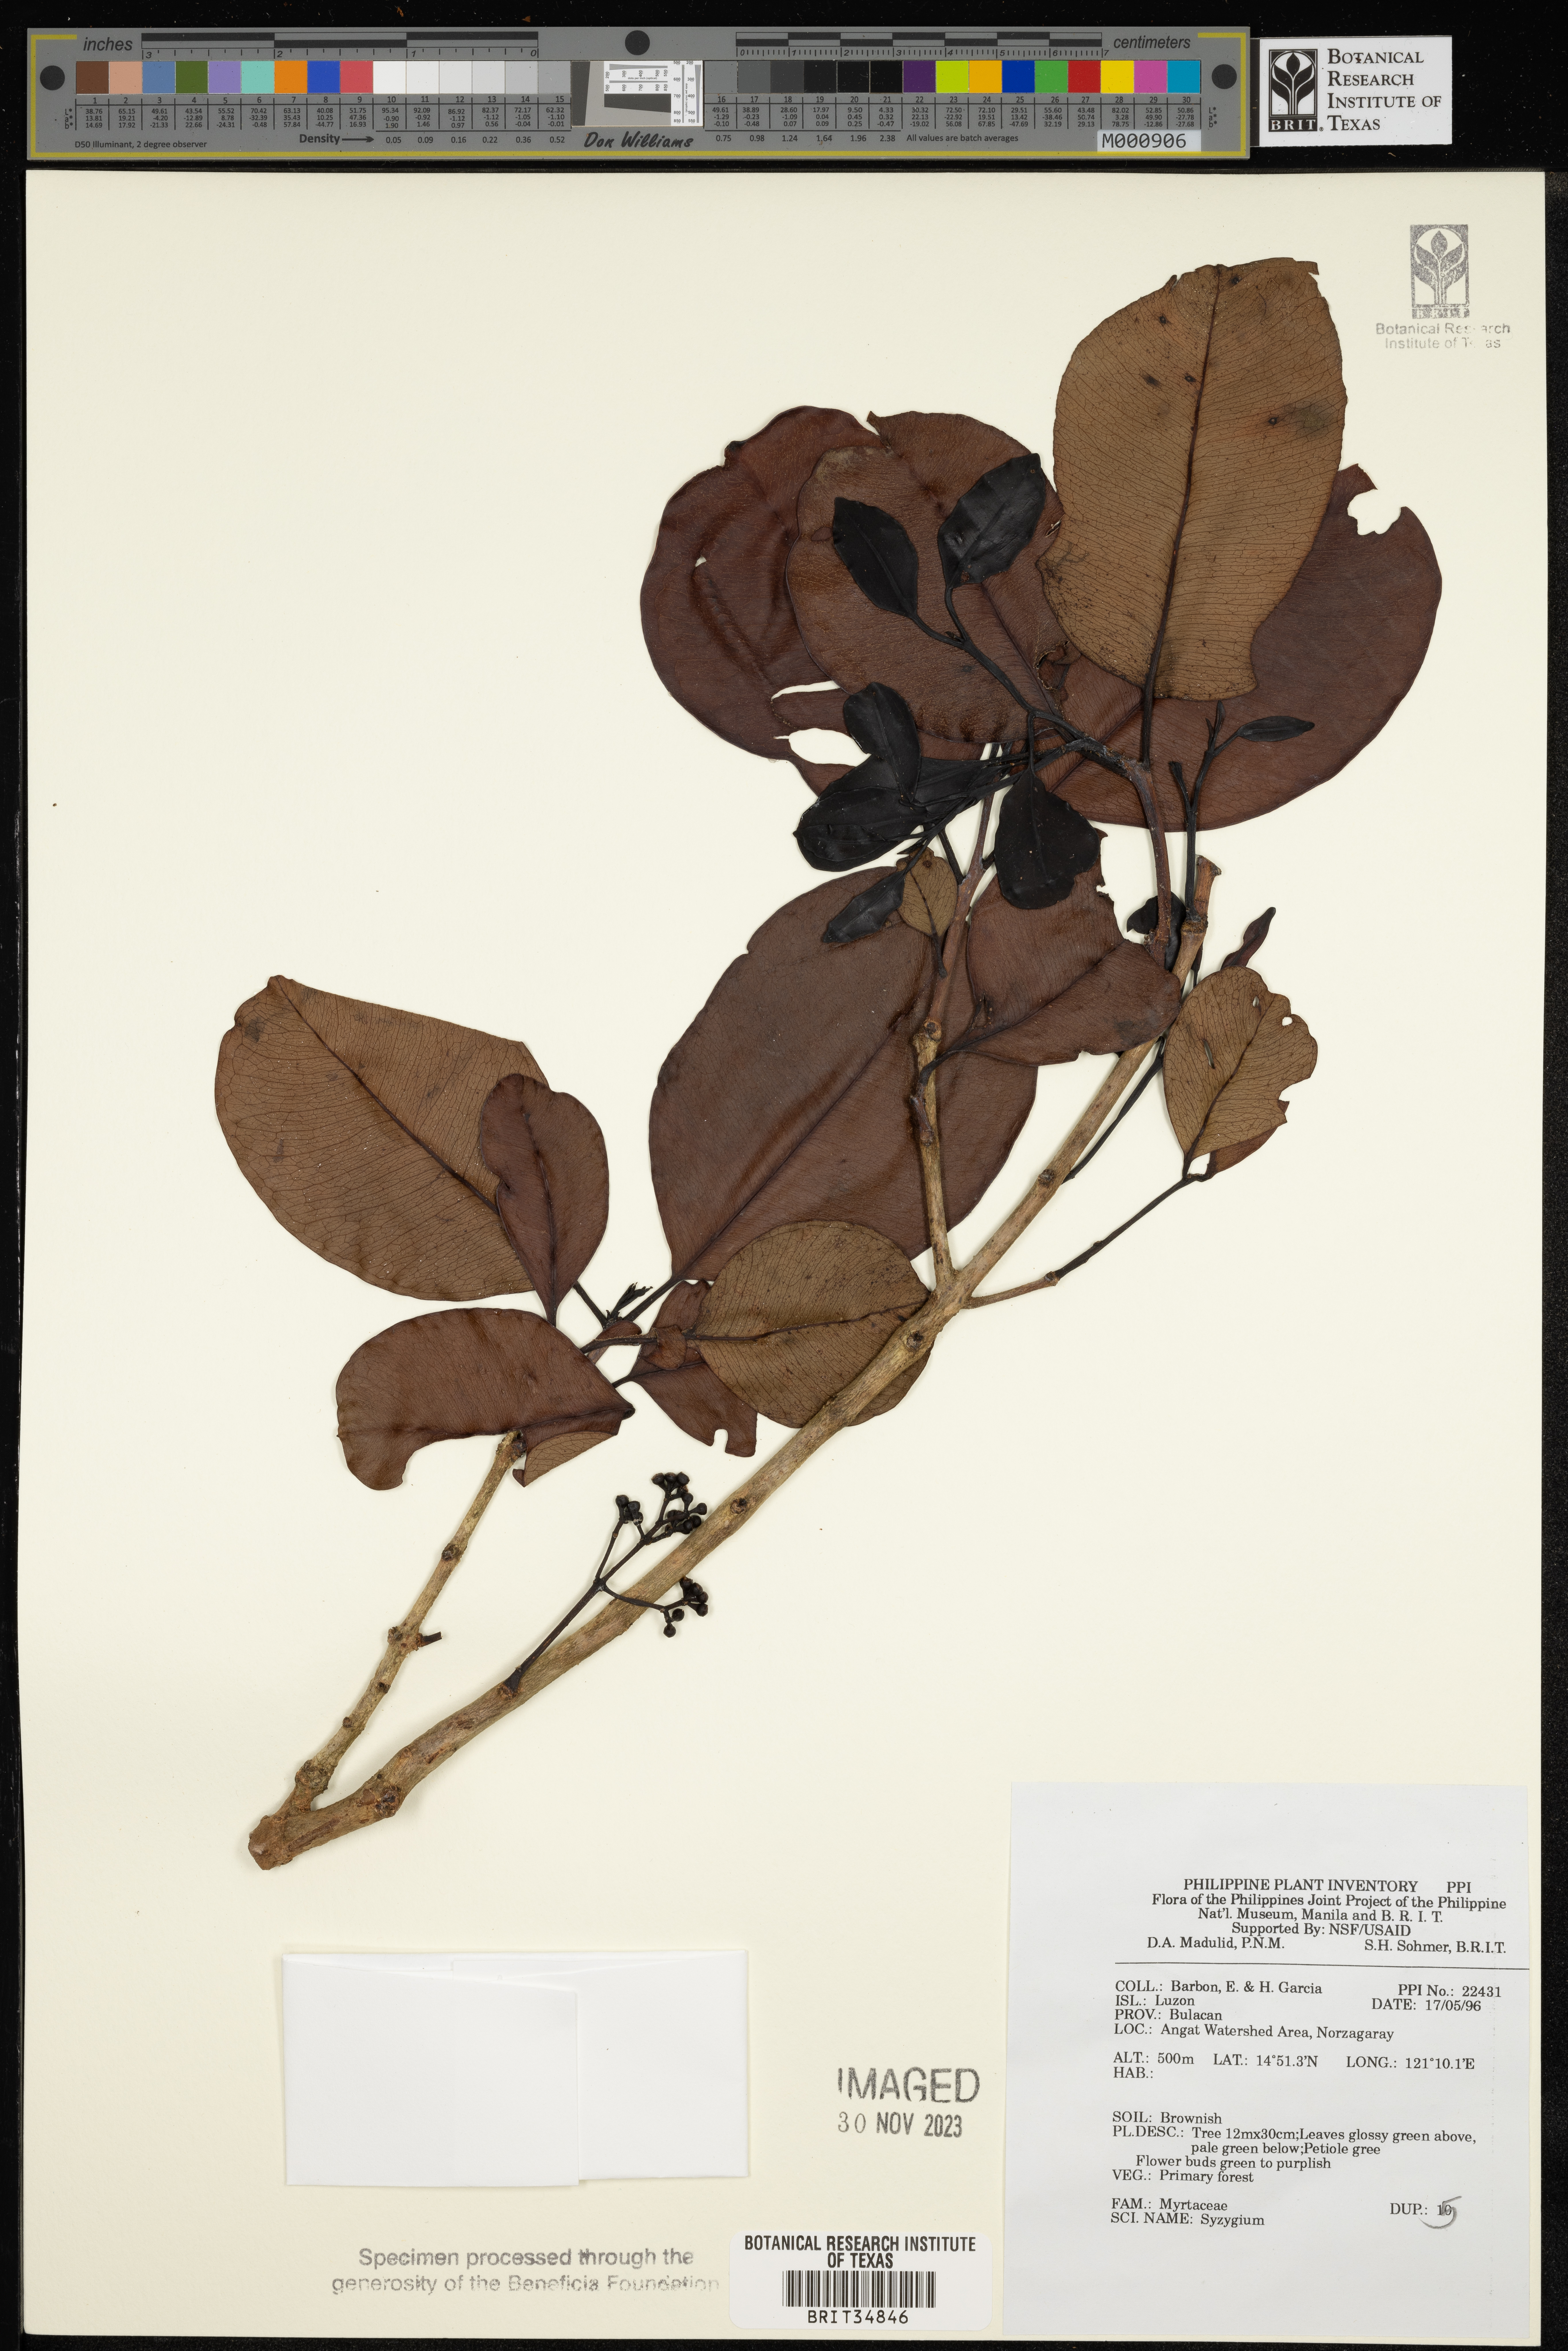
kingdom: Plantae
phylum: Tracheophyta
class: Magnoliopsida
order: Myrtales
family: Myrtaceae
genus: Syzygium
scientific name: Syzygium
